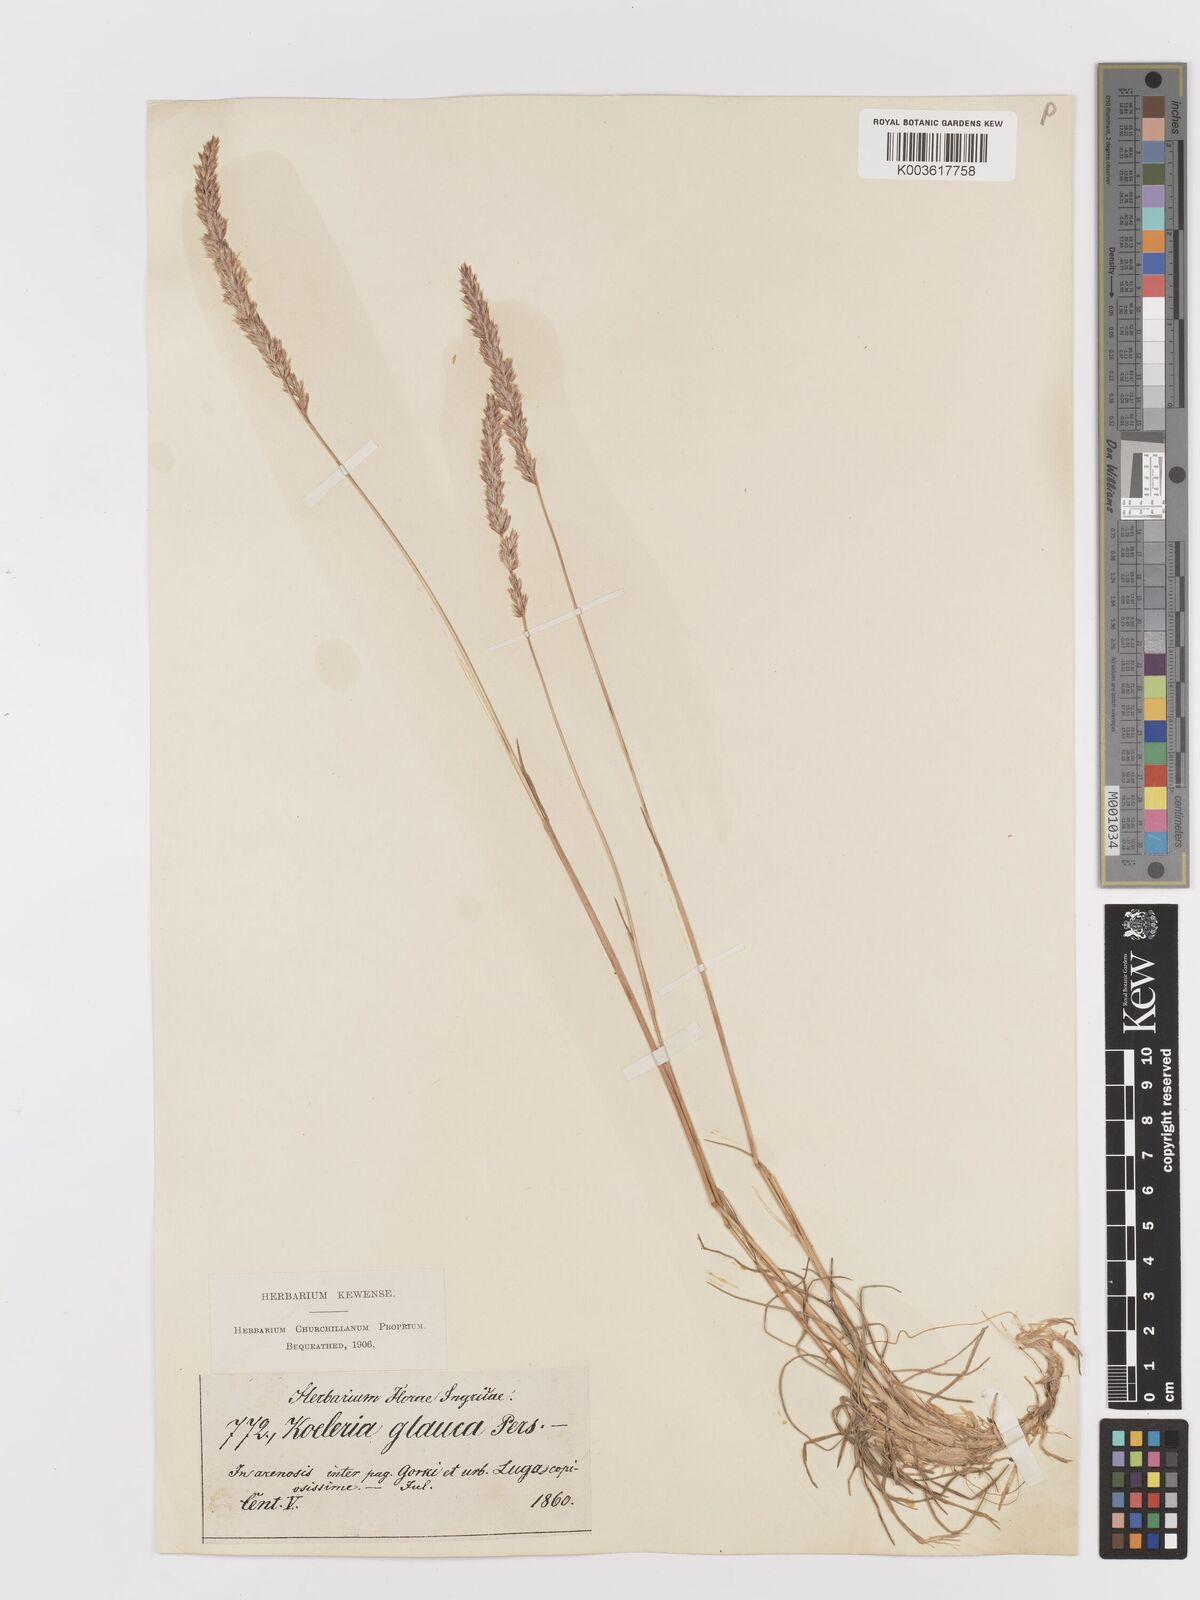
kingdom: Plantae
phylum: Tracheophyta
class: Liliopsida
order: Poales
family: Poaceae
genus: Koeleria
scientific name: Koeleria glauca
